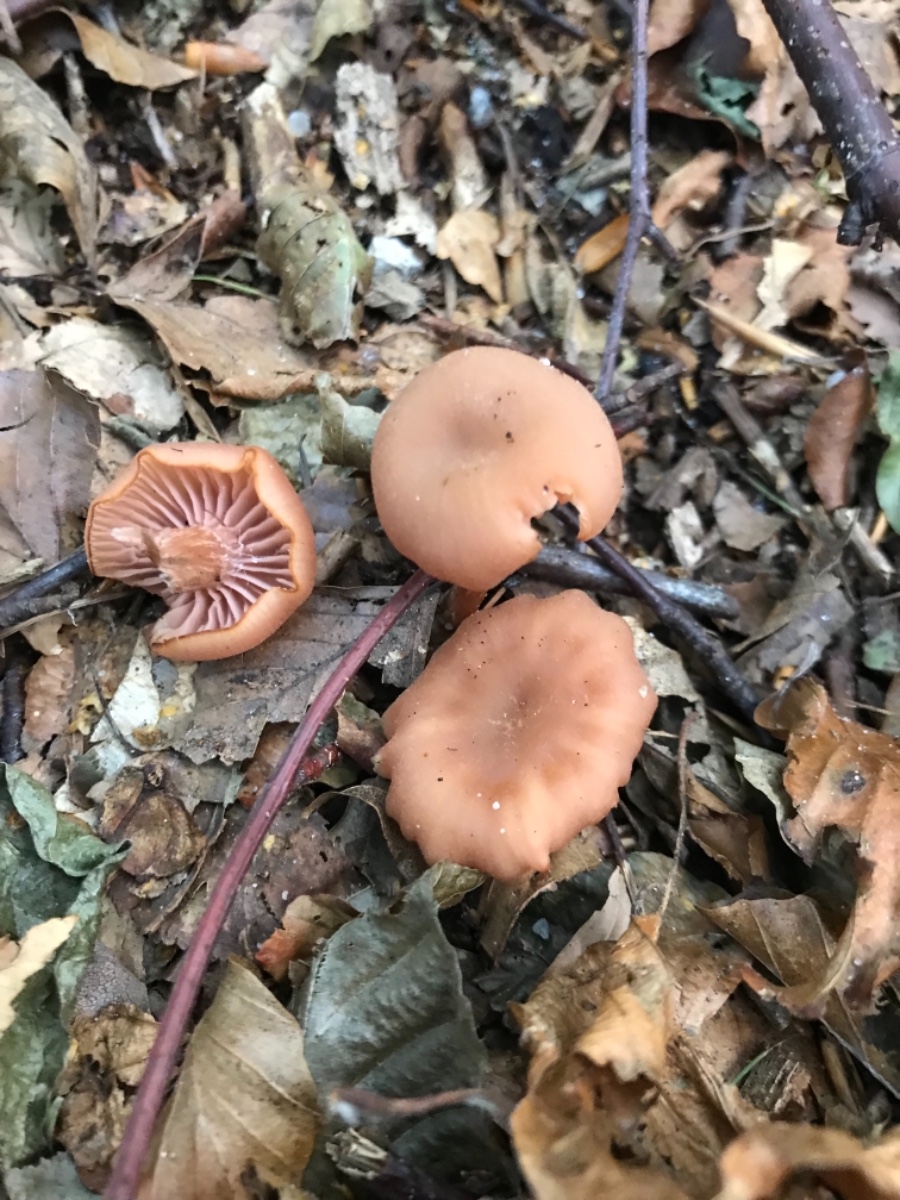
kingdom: Fungi
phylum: Basidiomycota
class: Agaricomycetes
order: Agaricales
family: Hydnangiaceae
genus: Laccaria
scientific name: Laccaria laccata
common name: rød ametysthat
